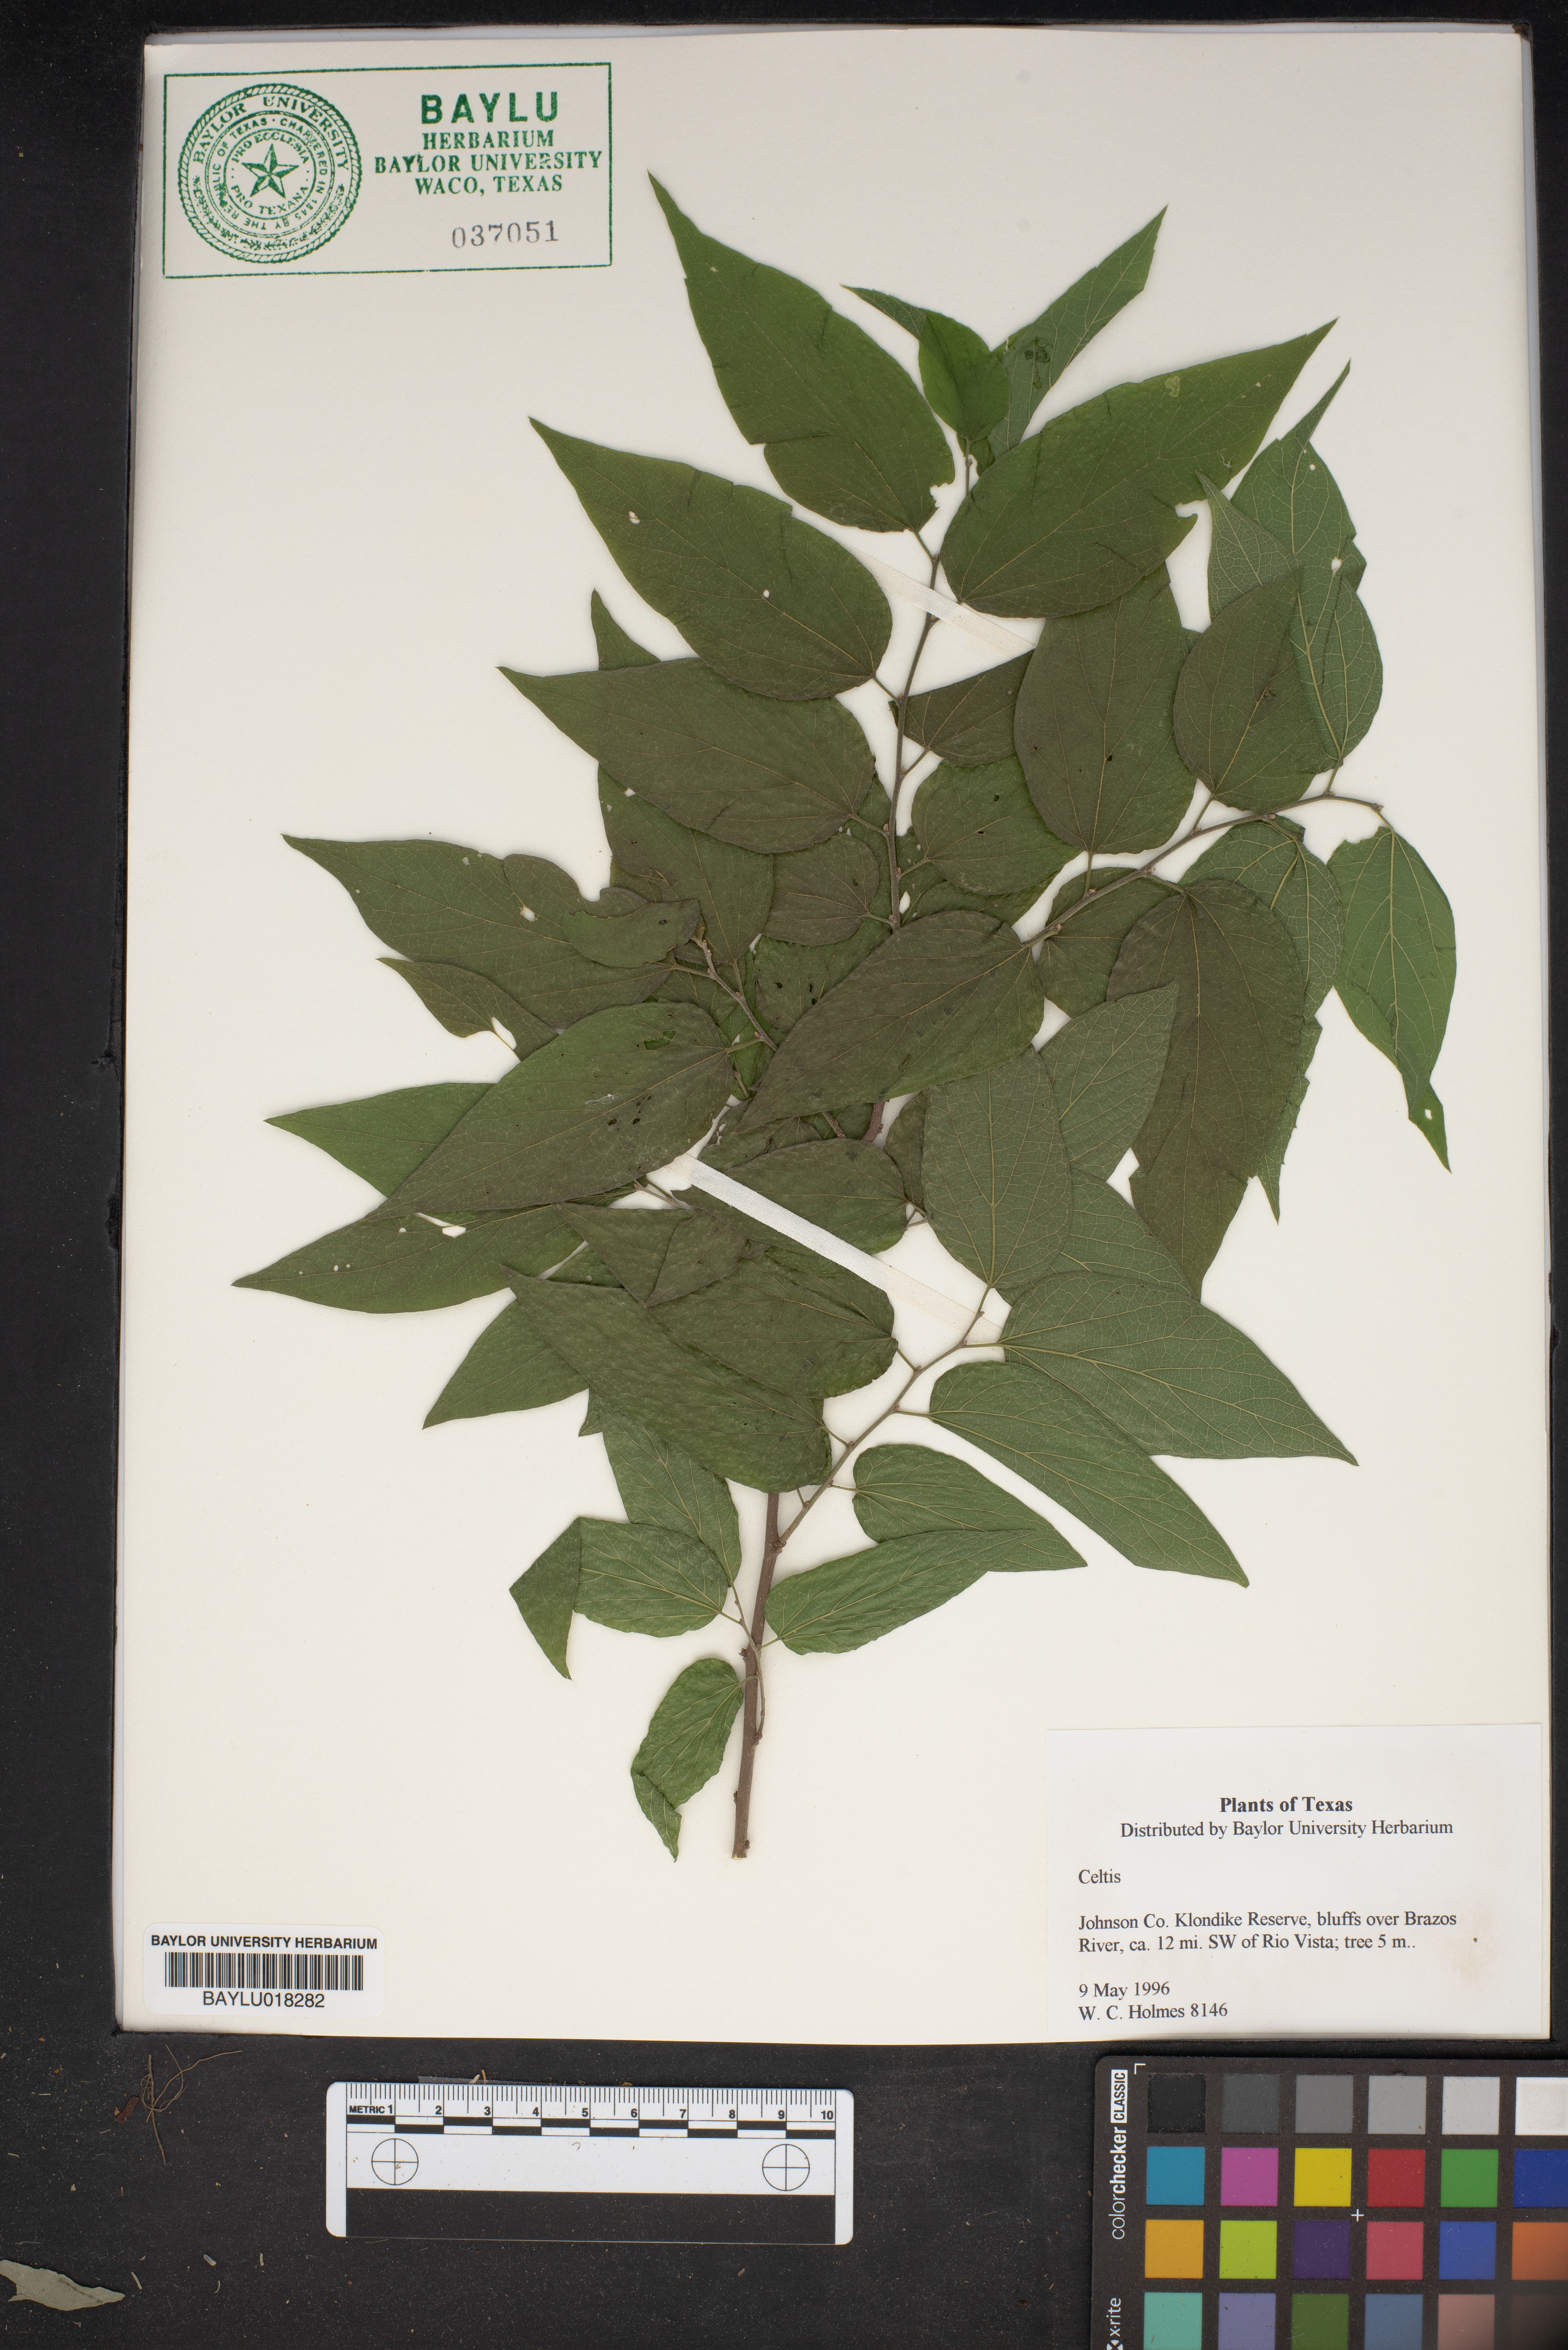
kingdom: Plantae
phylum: Tracheophyta
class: Magnoliopsida
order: Rosales
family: Cannabaceae
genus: Celtis
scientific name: Celtis
